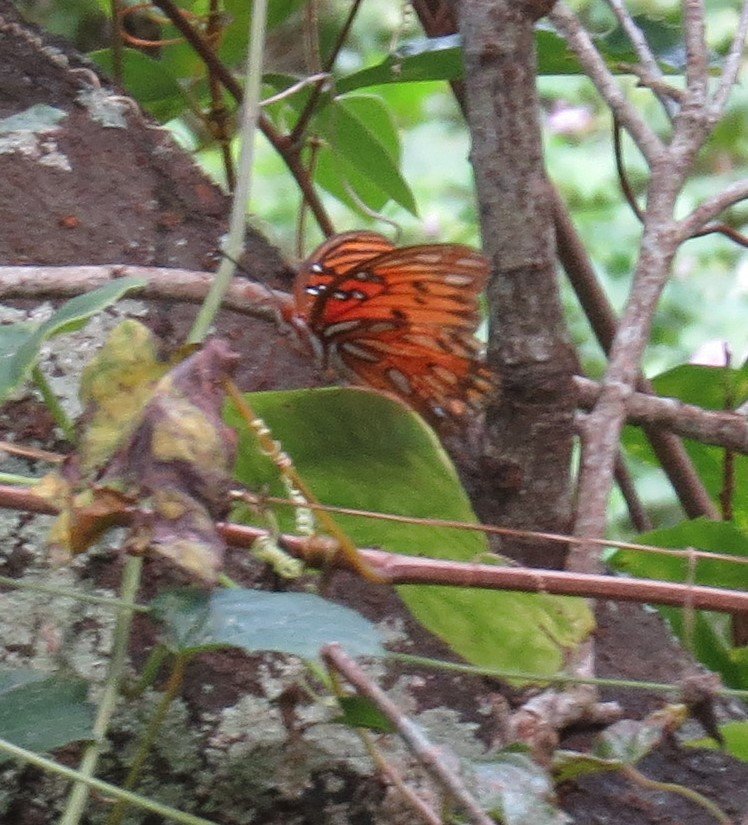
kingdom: Animalia
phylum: Arthropoda
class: Insecta
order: Lepidoptera
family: Nymphalidae
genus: Dione
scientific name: Dione vanillae
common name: Gulf Fritillary
